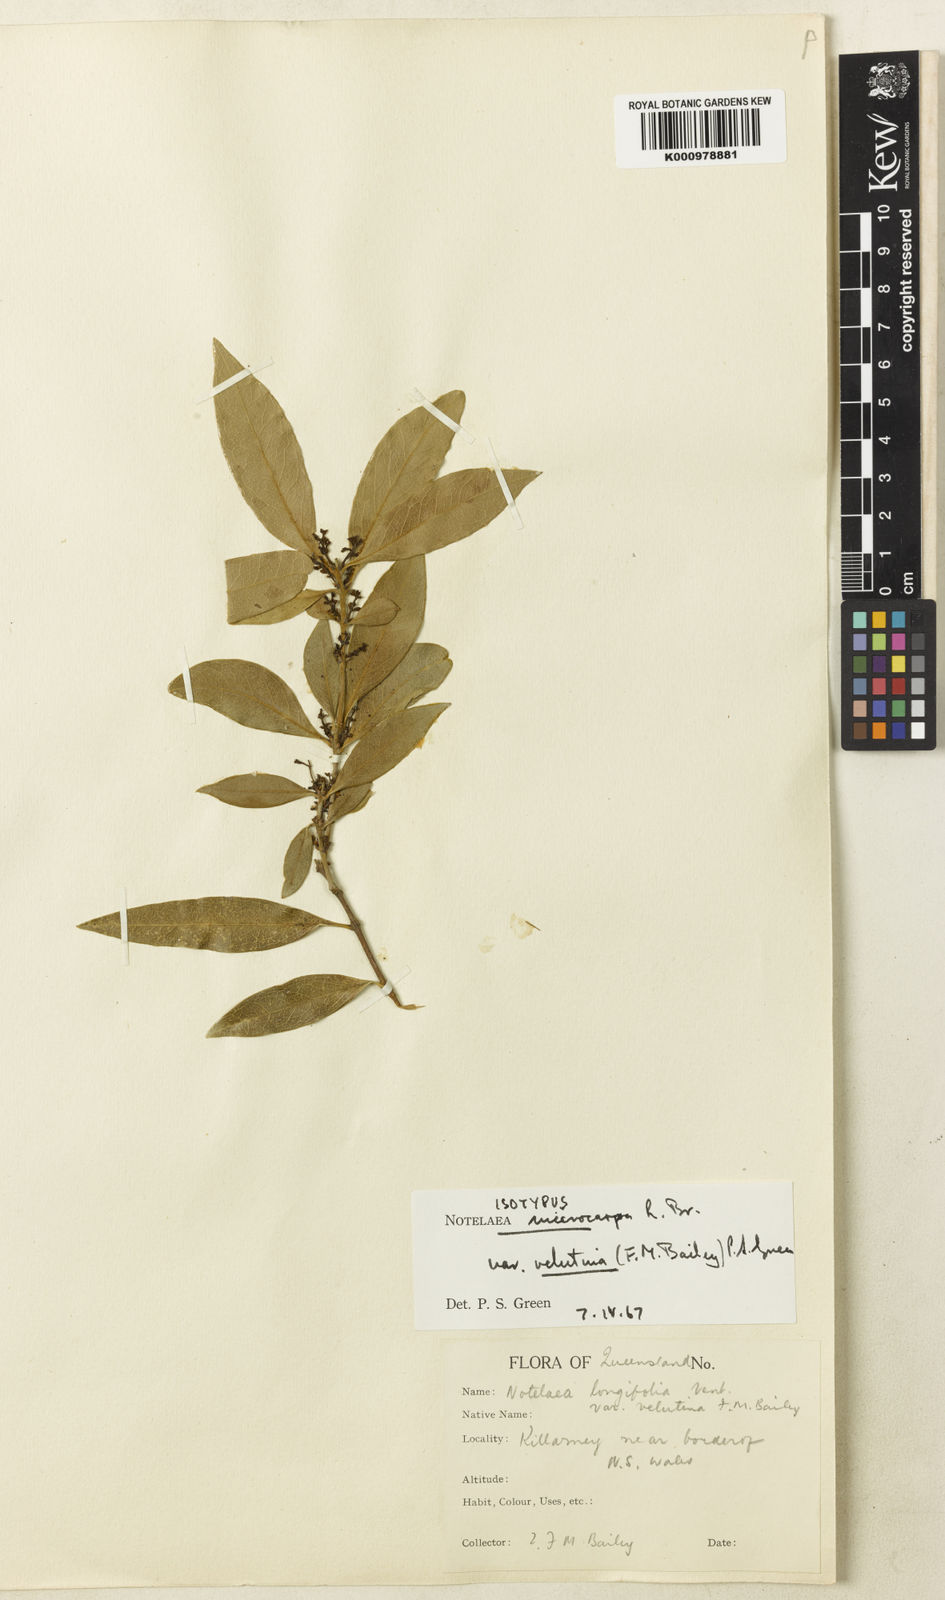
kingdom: Plantae
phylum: Tracheophyta
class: Magnoliopsida
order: Lamiales
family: Oleaceae
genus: Notelaea
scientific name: Notelaea microcarpa
